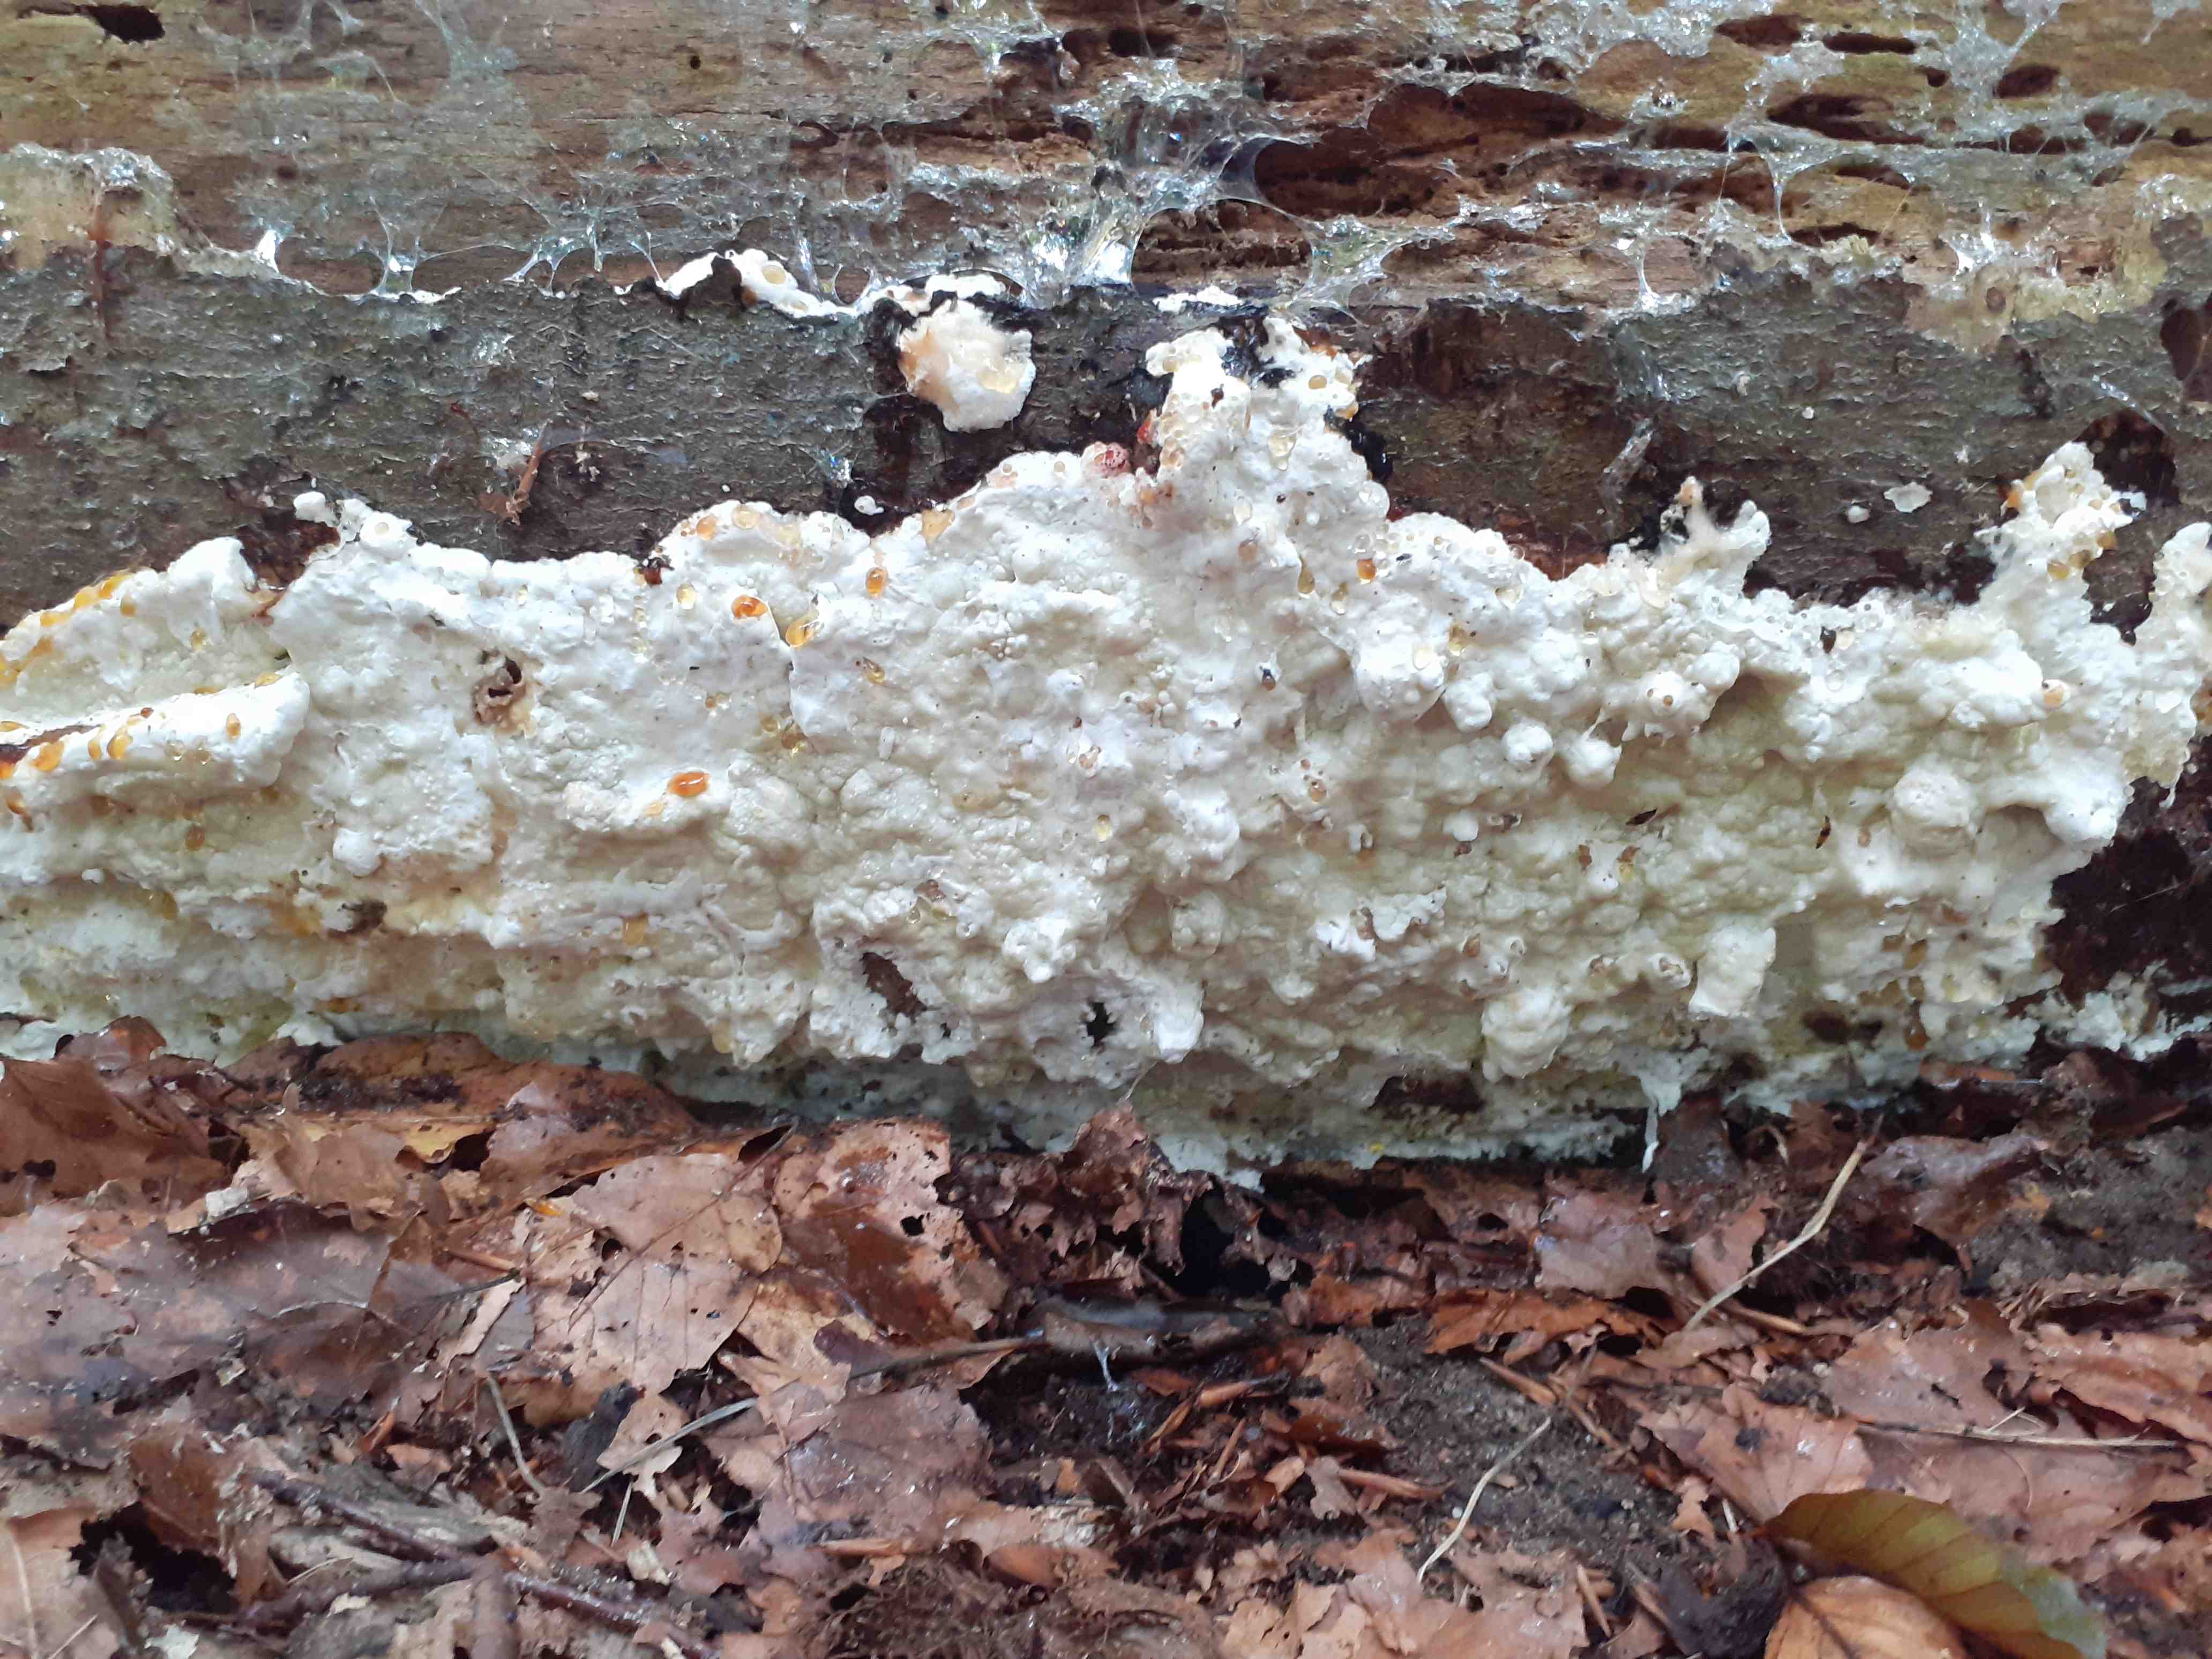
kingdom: Fungi
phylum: Basidiomycota
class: Agaricomycetes
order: Polyporales
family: Irpicaceae
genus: Gloeoporus
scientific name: Gloeoporus pannocinctus
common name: grøngul foldporesvamp
